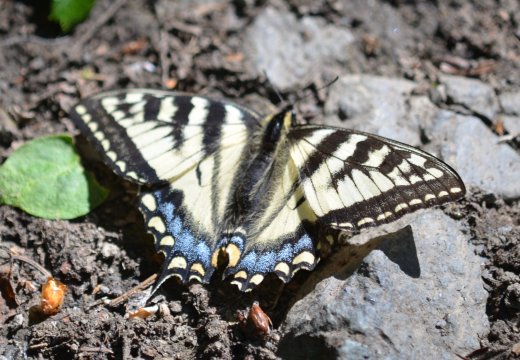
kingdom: Animalia
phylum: Arthropoda
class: Insecta
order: Lepidoptera
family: Papilionidae
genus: Pterourus
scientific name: Pterourus canadensis
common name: Canadian Tiger Swallowtail
